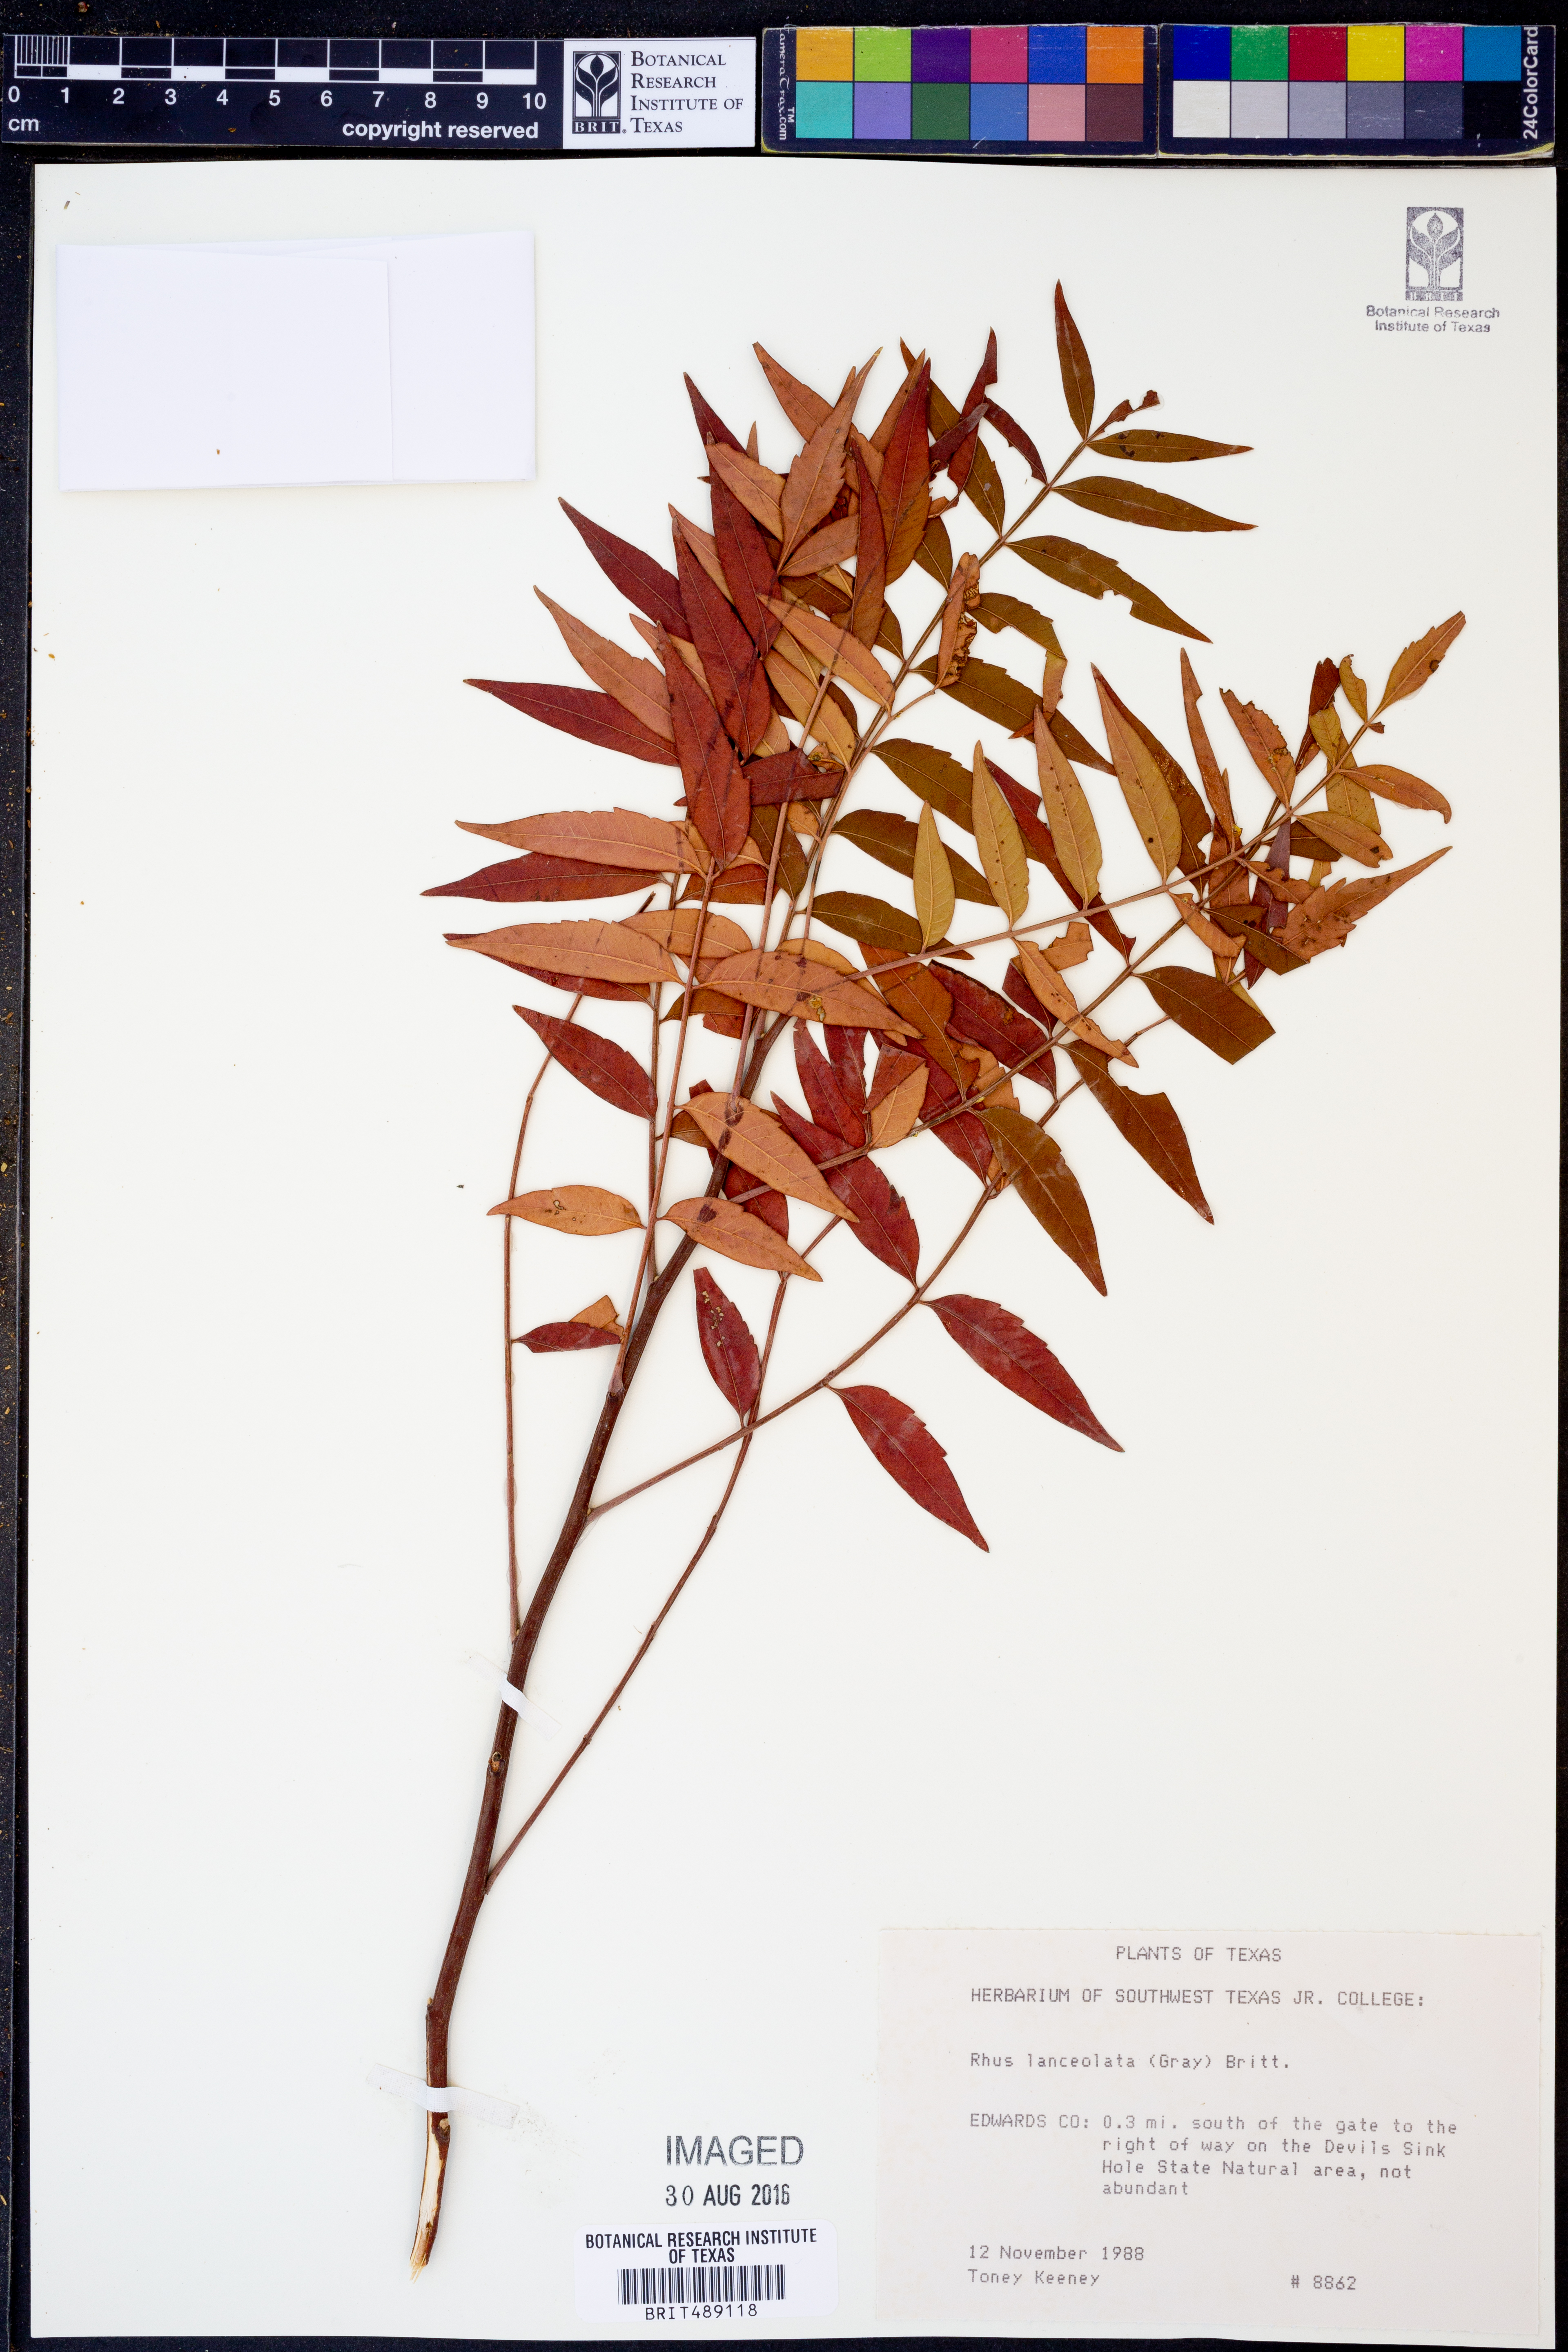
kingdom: Plantae
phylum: Tracheophyta
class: Magnoliopsida
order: Sapindales
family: Anacardiaceae
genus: Rhus
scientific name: Rhus lanceolata
